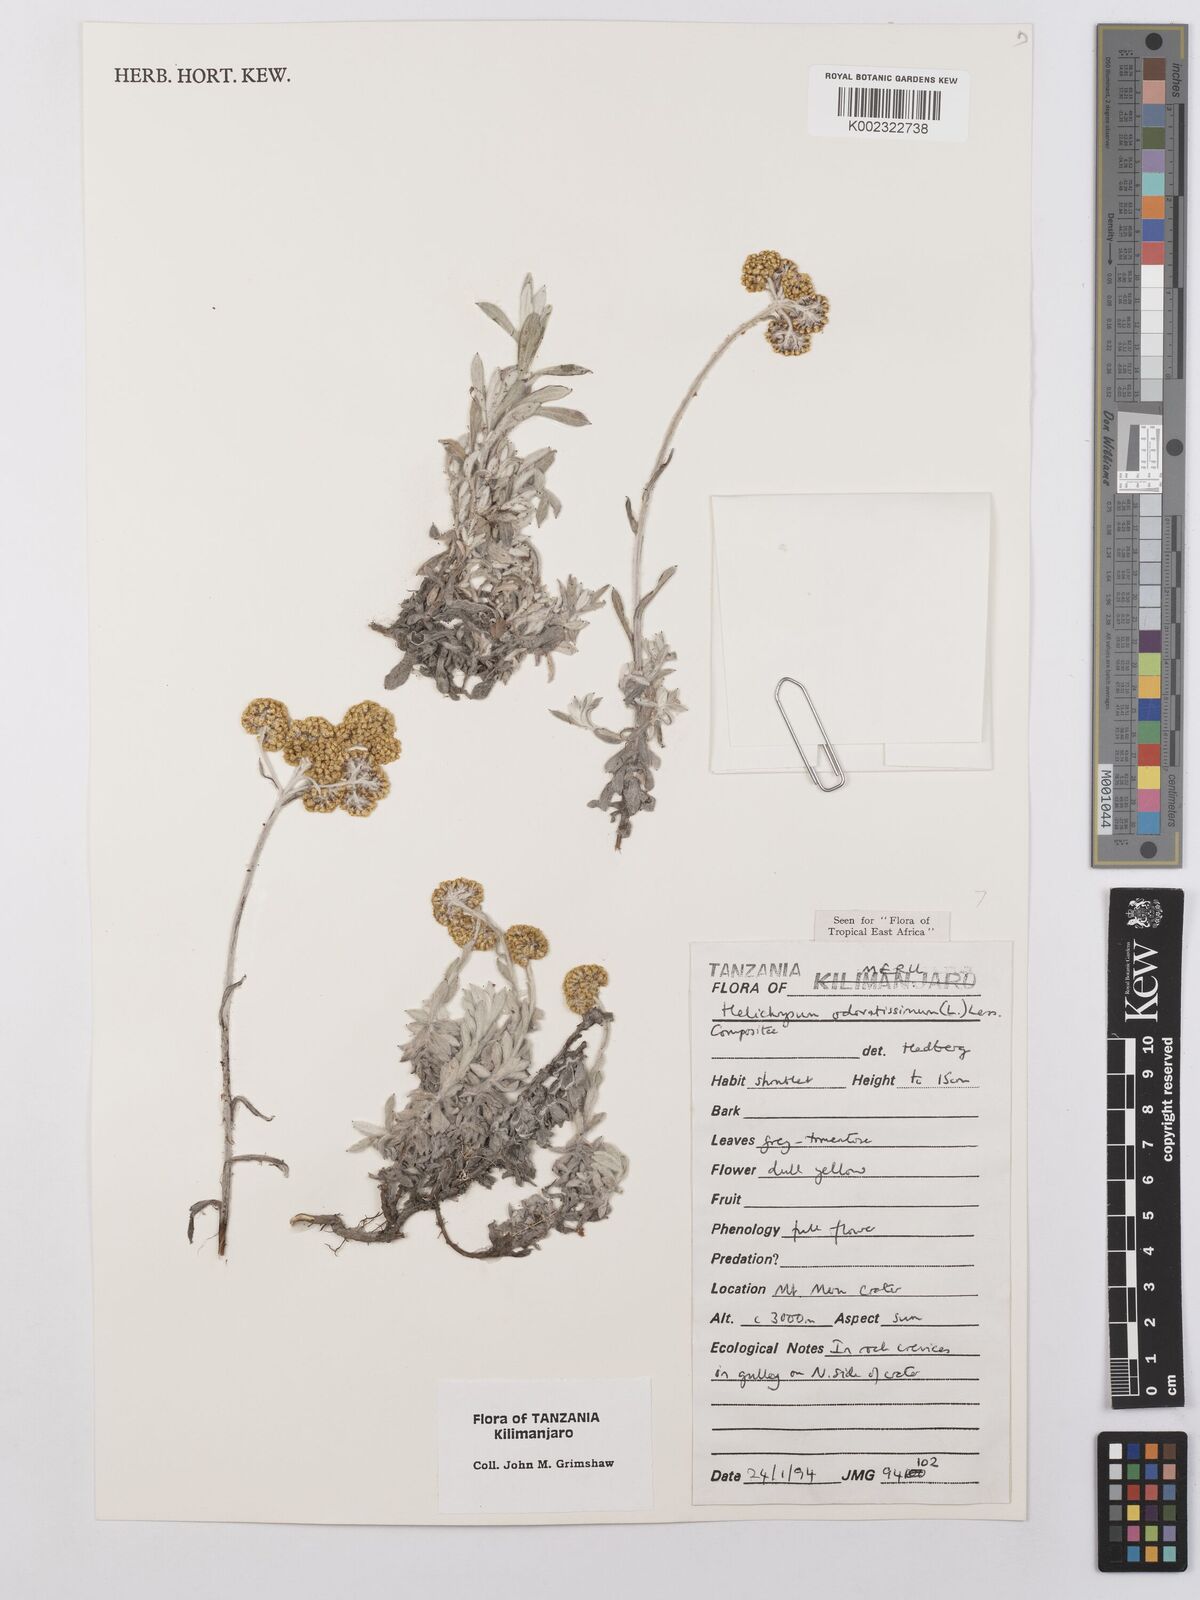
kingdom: Plantae
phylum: Tracheophyta
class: Magnoliopsida
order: Asterales
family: Asteraceae
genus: Helichrysum
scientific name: Helichrysum odoratissimum
